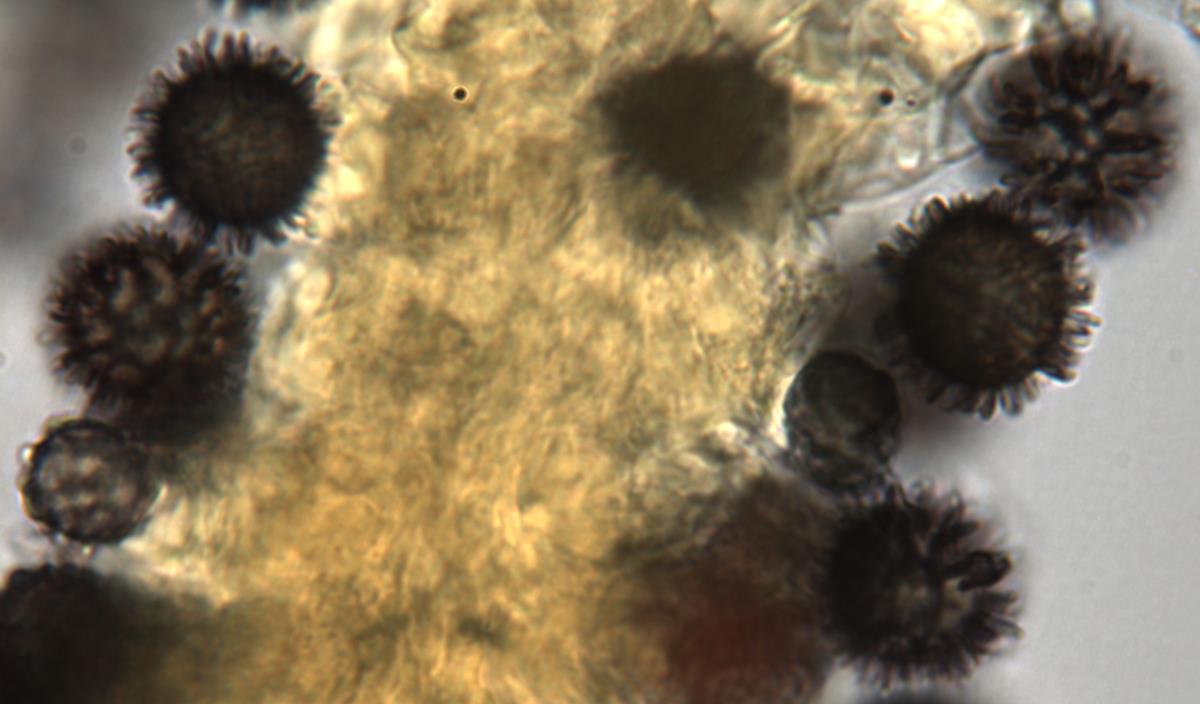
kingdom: Fungi
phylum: Basidiomycota
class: Agaricomycetes
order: Russulales
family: Russulaceae
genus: Russula
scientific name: Russula osphranticarpa
